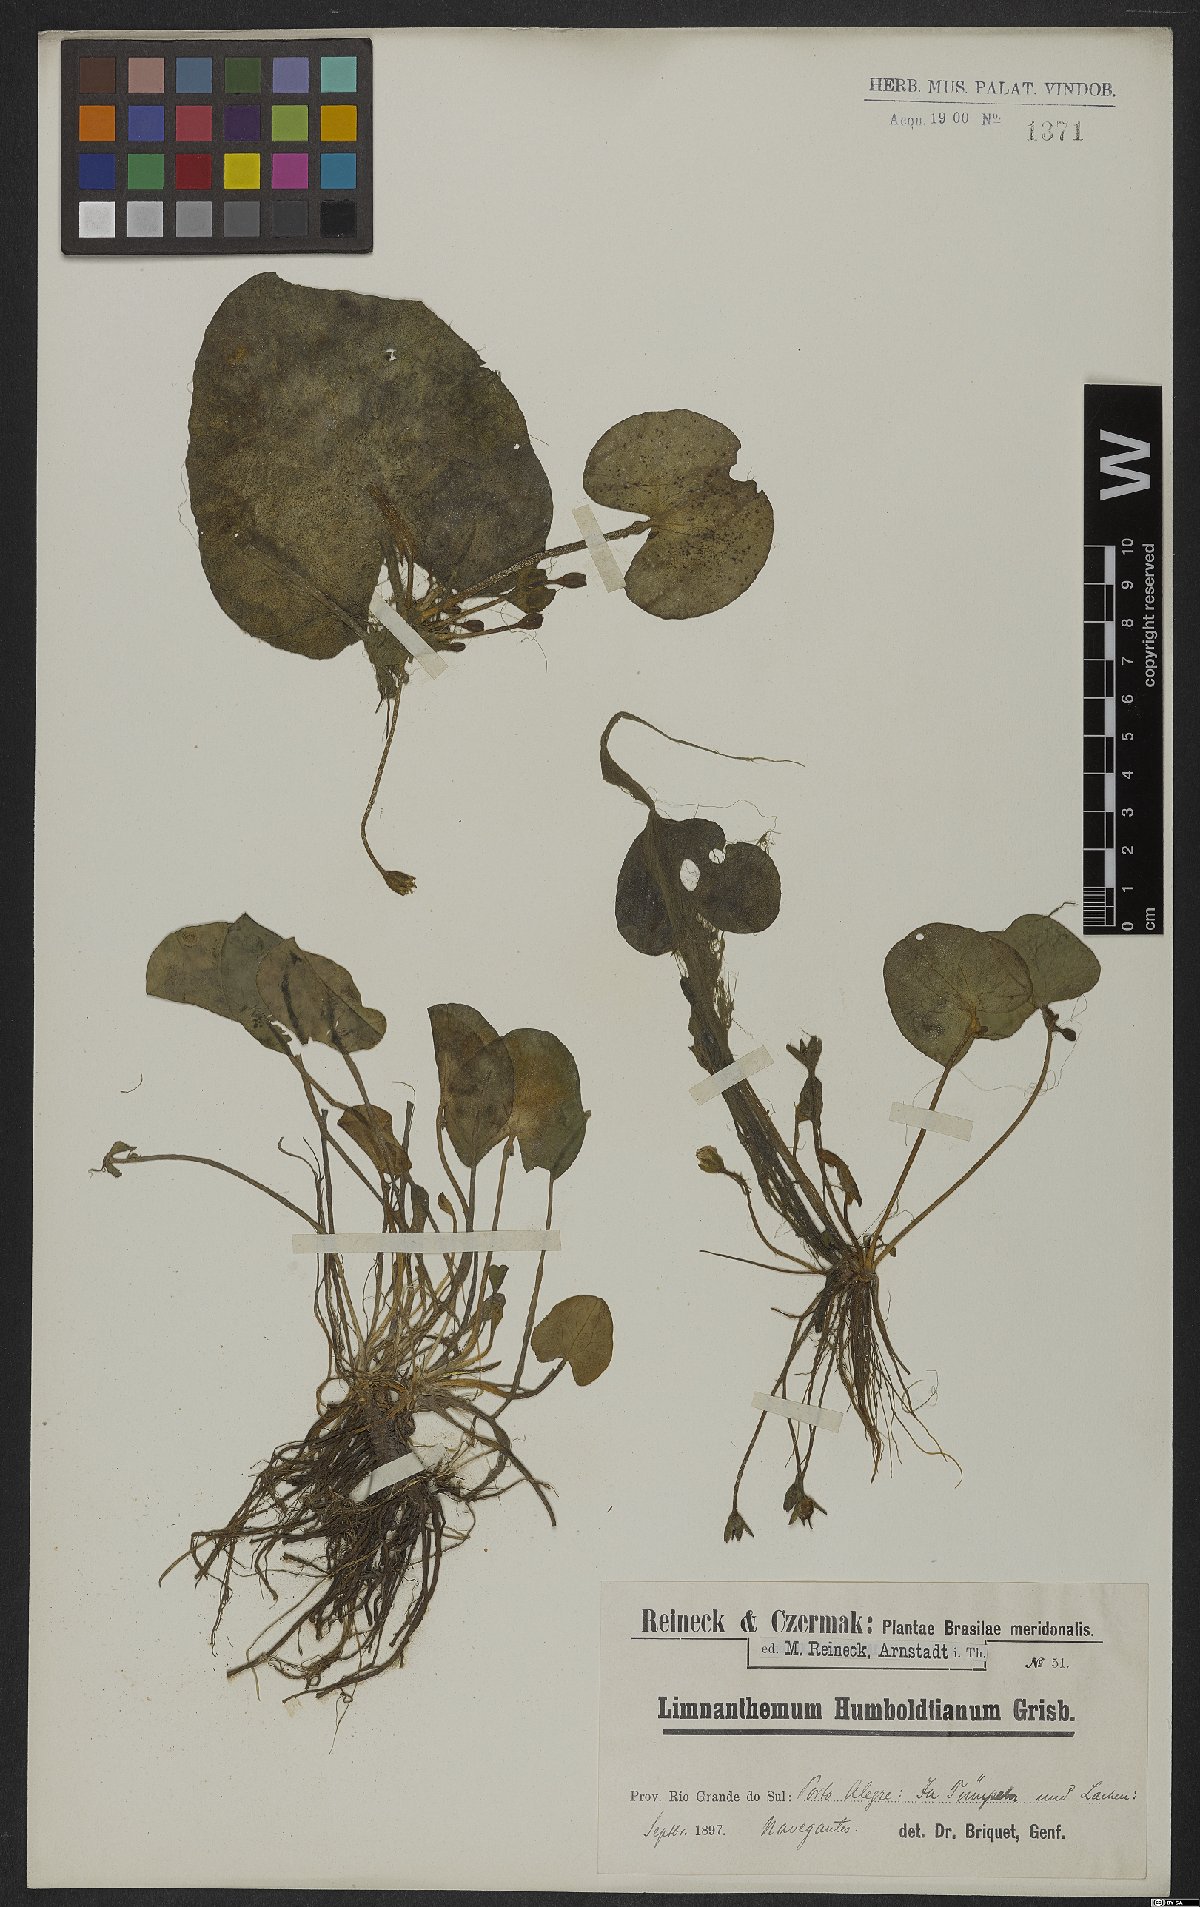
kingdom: Plantae
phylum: Tracheophyta
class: Magnoliopsida
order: Asterales
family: Menyanthaceae
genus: Nymphoides
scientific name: Nymphoides humboldtiana
